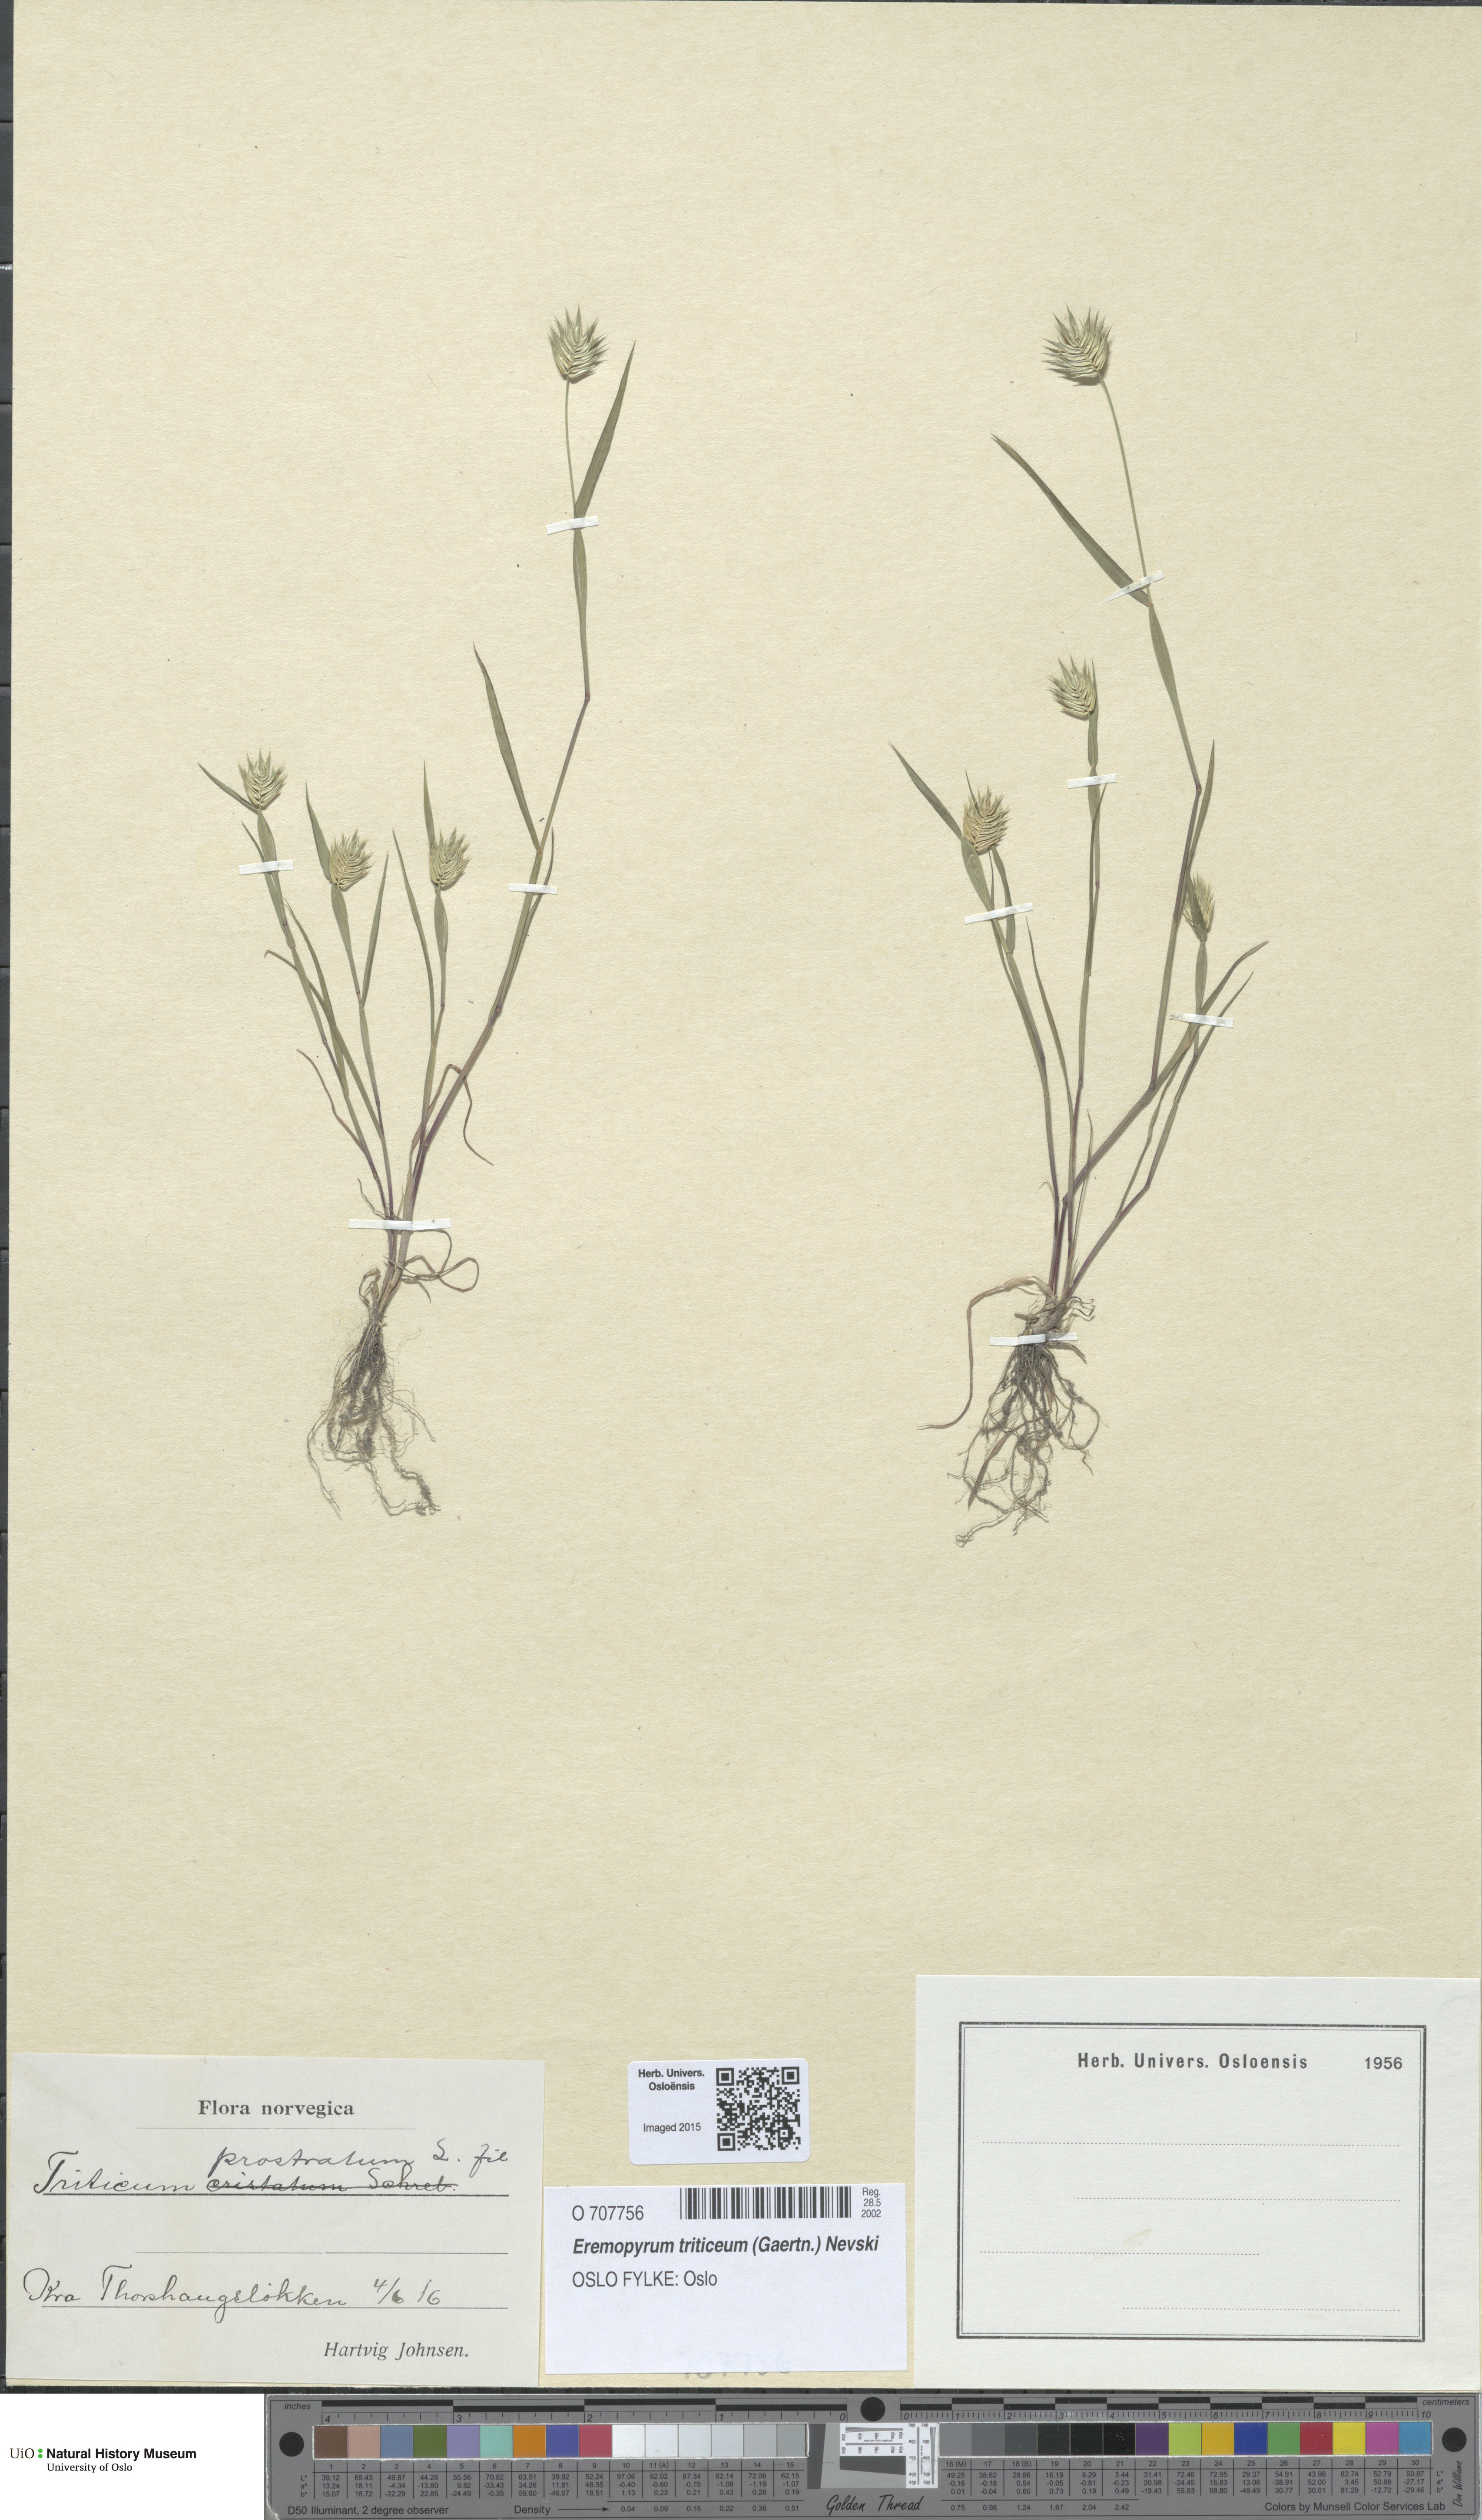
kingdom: Plantae
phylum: Tracheophyta
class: Liliopsida
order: Poales
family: Poaceae
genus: Eremopyrum
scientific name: Eremopyrum triticeum
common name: Annual wheatgrass
